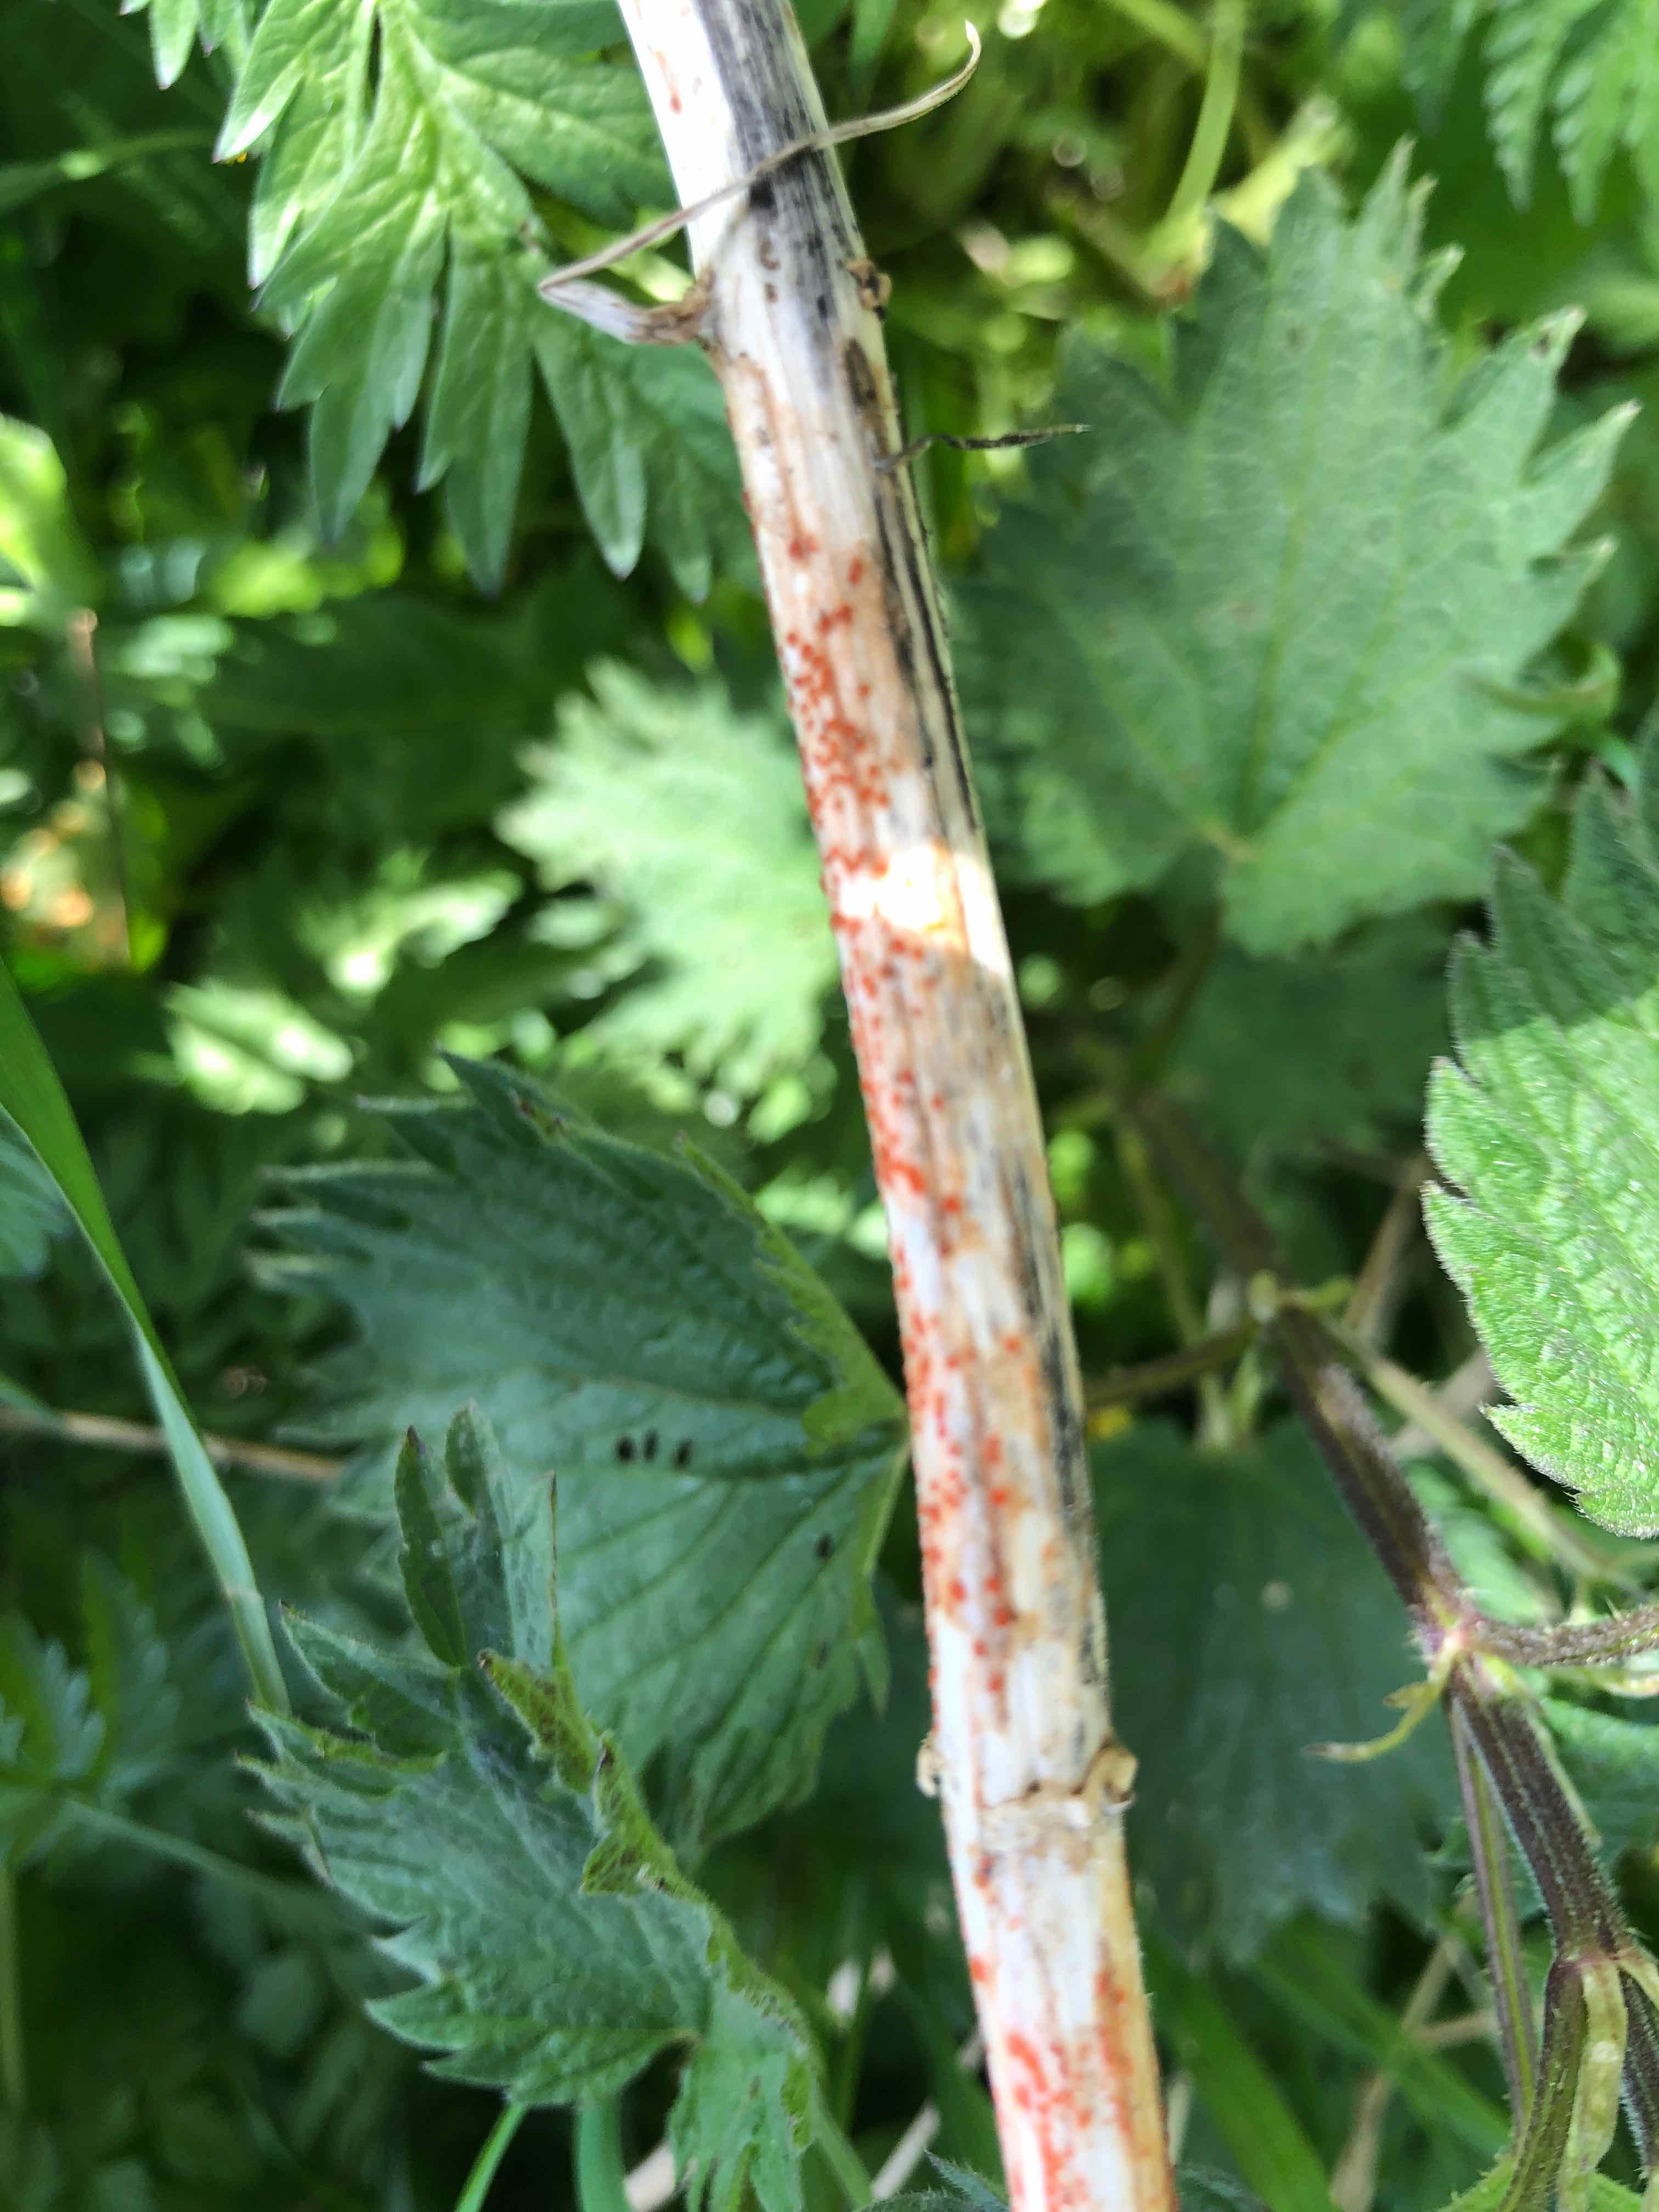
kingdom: Fungi
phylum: Ascomycota
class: Leotiomycetes
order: Helotiales
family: Calloriaceae
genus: Calloria
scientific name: Calloria urticae
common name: nælde-orangeskive
